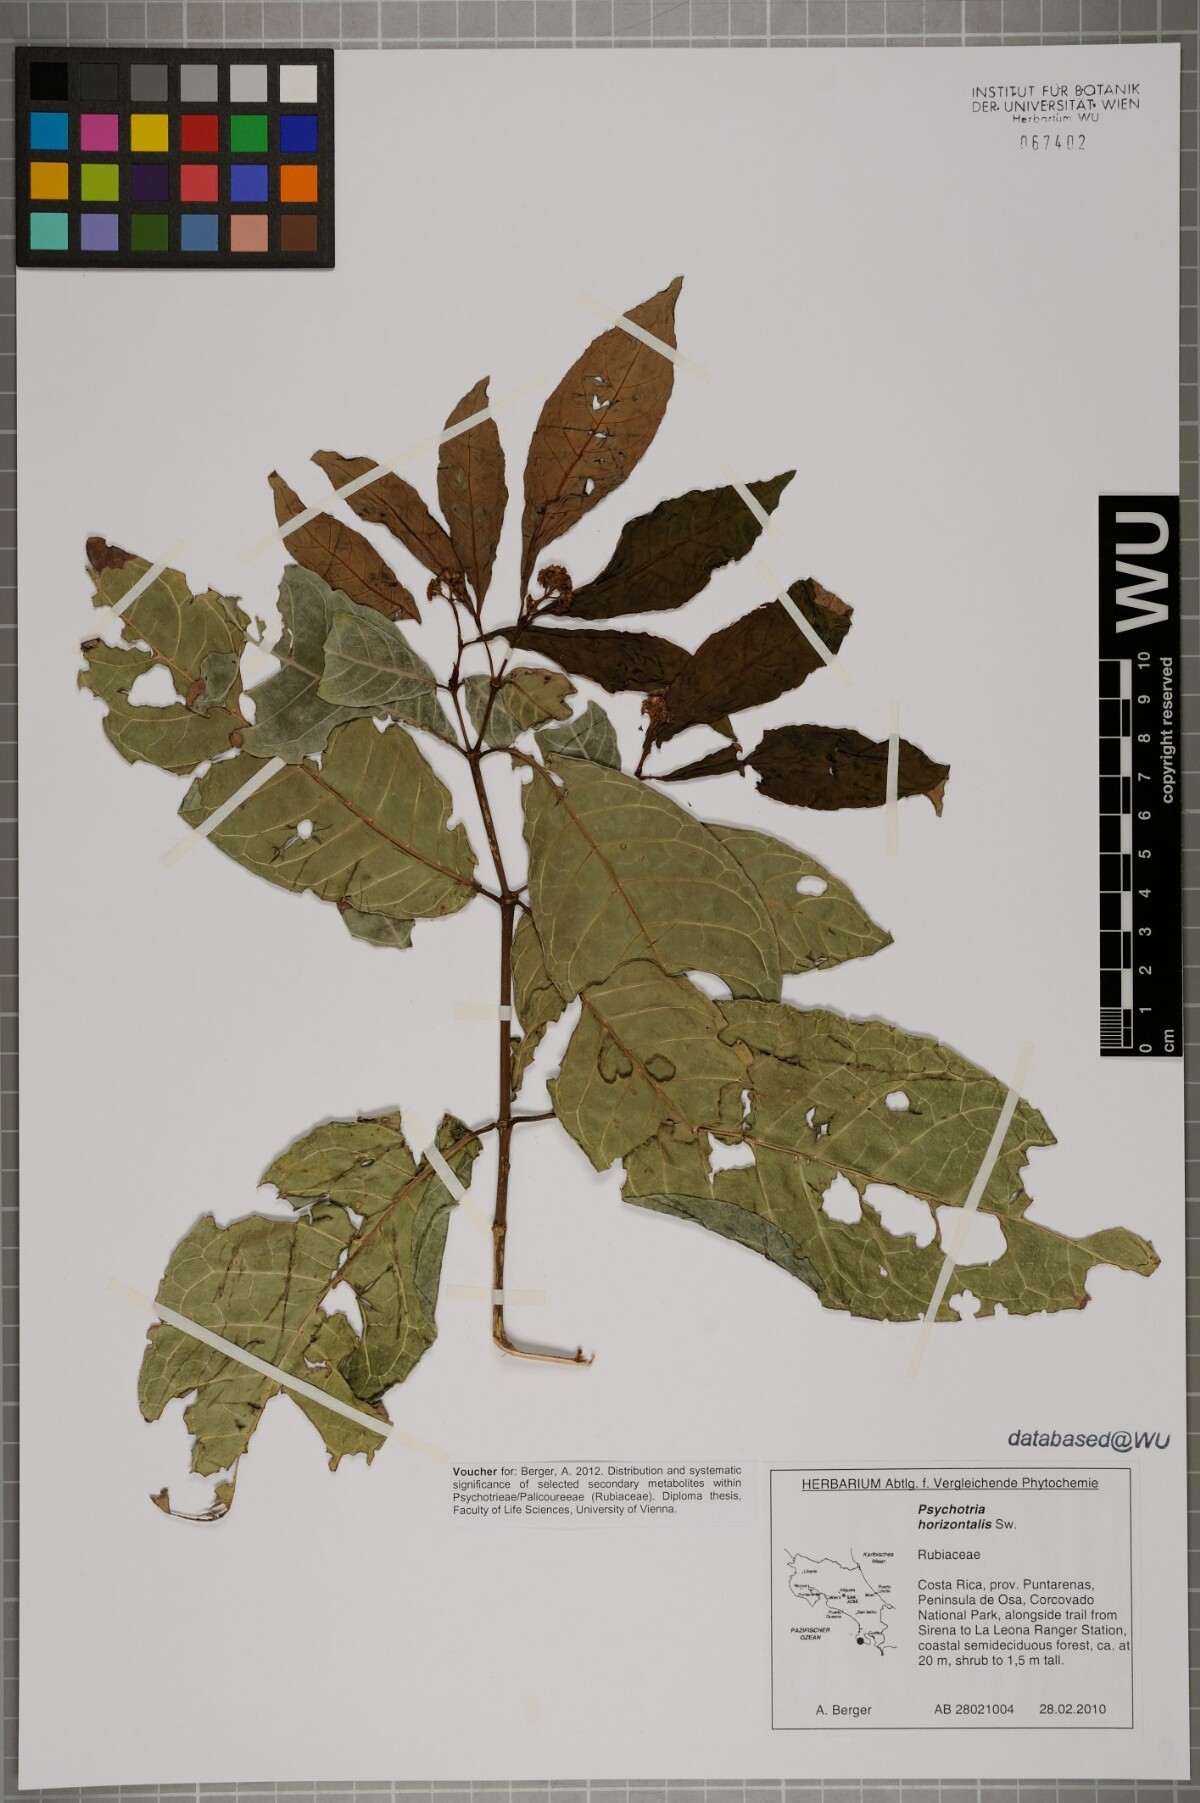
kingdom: Plantae
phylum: Tracheophyta
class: Magnoliopsida
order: Gentianales
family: Rubiaceae
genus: Psychotria
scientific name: Psychotria horizontalis
